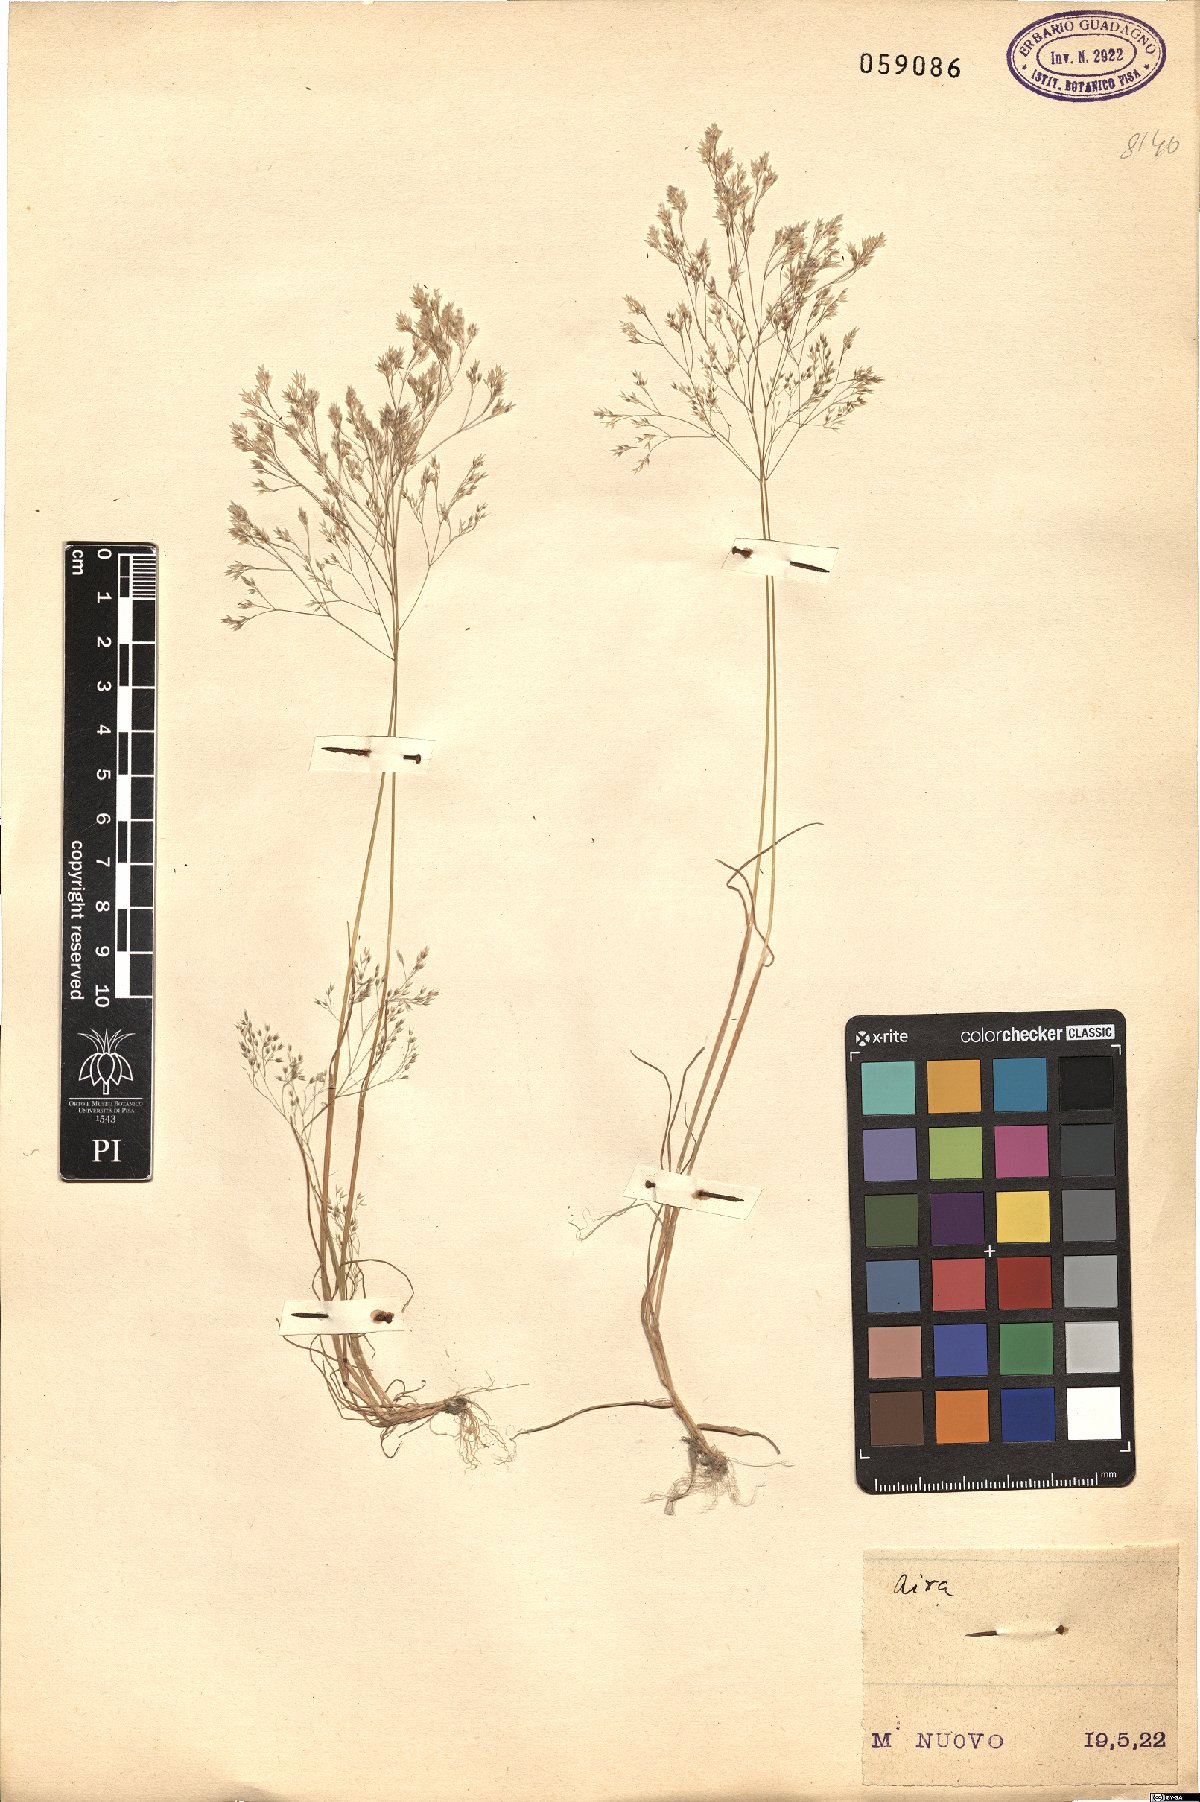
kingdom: Plantae
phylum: Tracheophyta
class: Liliopsida
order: Poales
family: Poaceae
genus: Aira
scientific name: Aira
